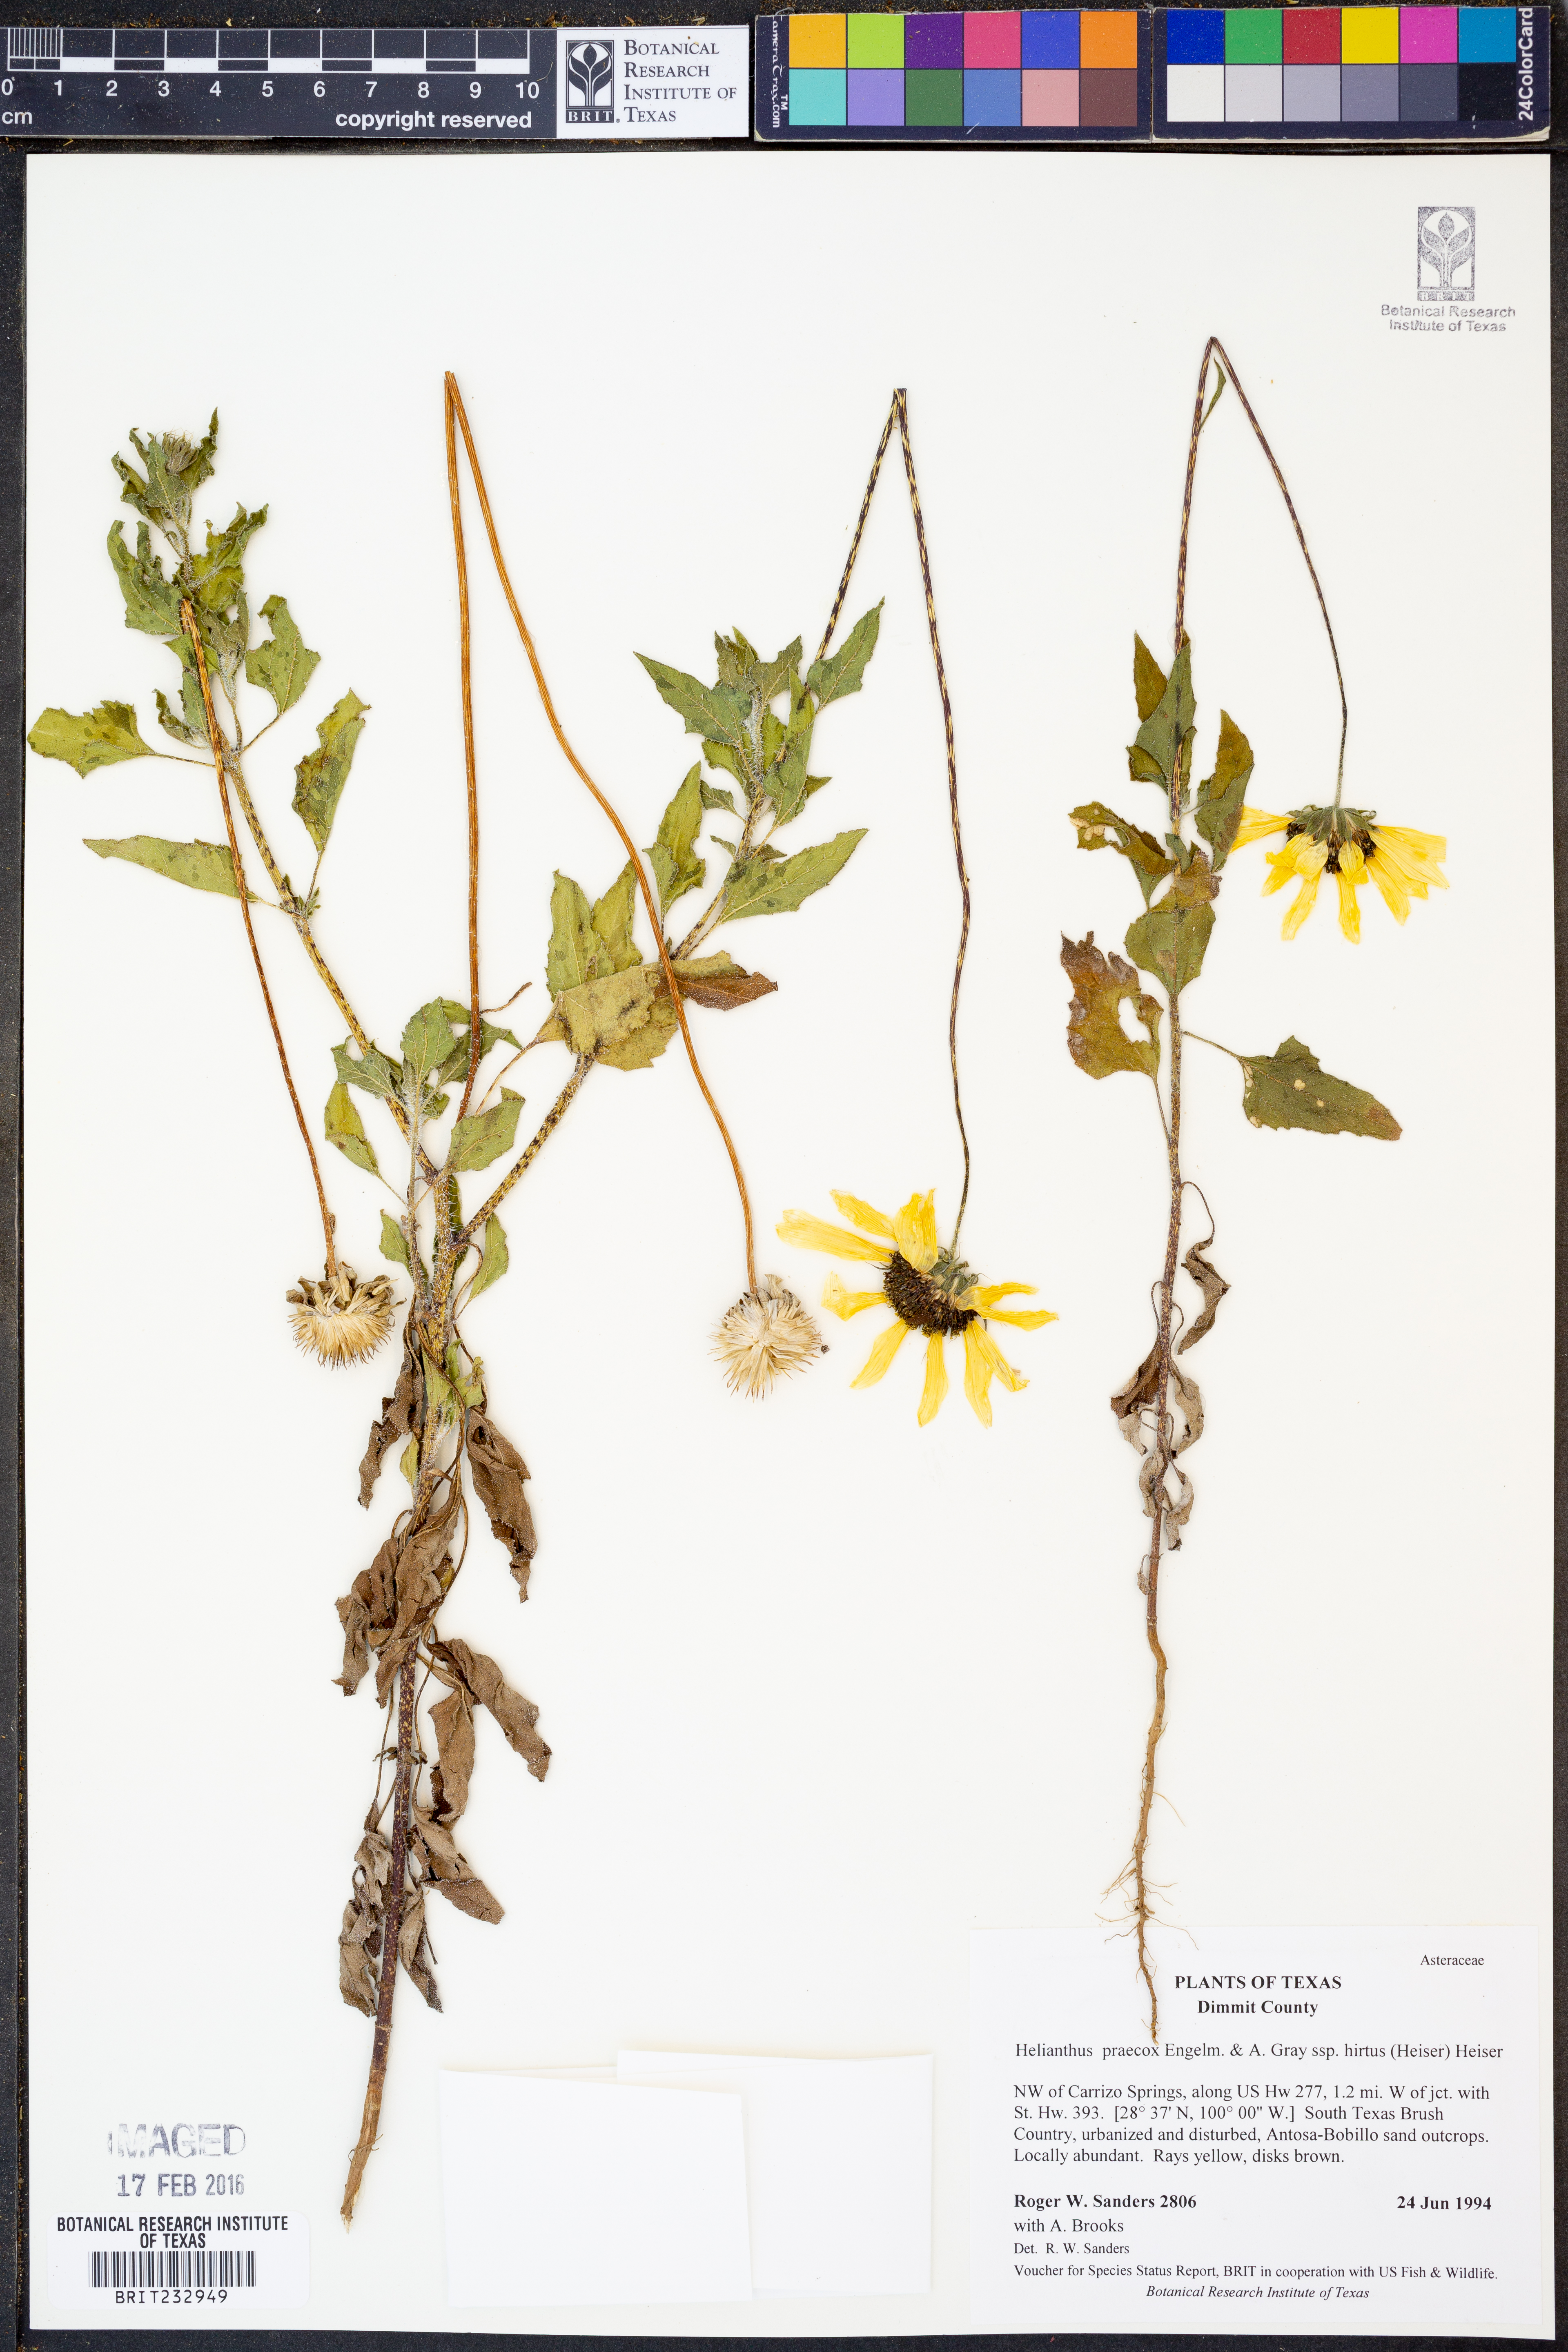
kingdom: Plantae
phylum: Tracheophyta
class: Magnoliopsida
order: Asterales
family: Asteraceae
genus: Helianthus
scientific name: Helianthus praecox
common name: Texas sunflower
